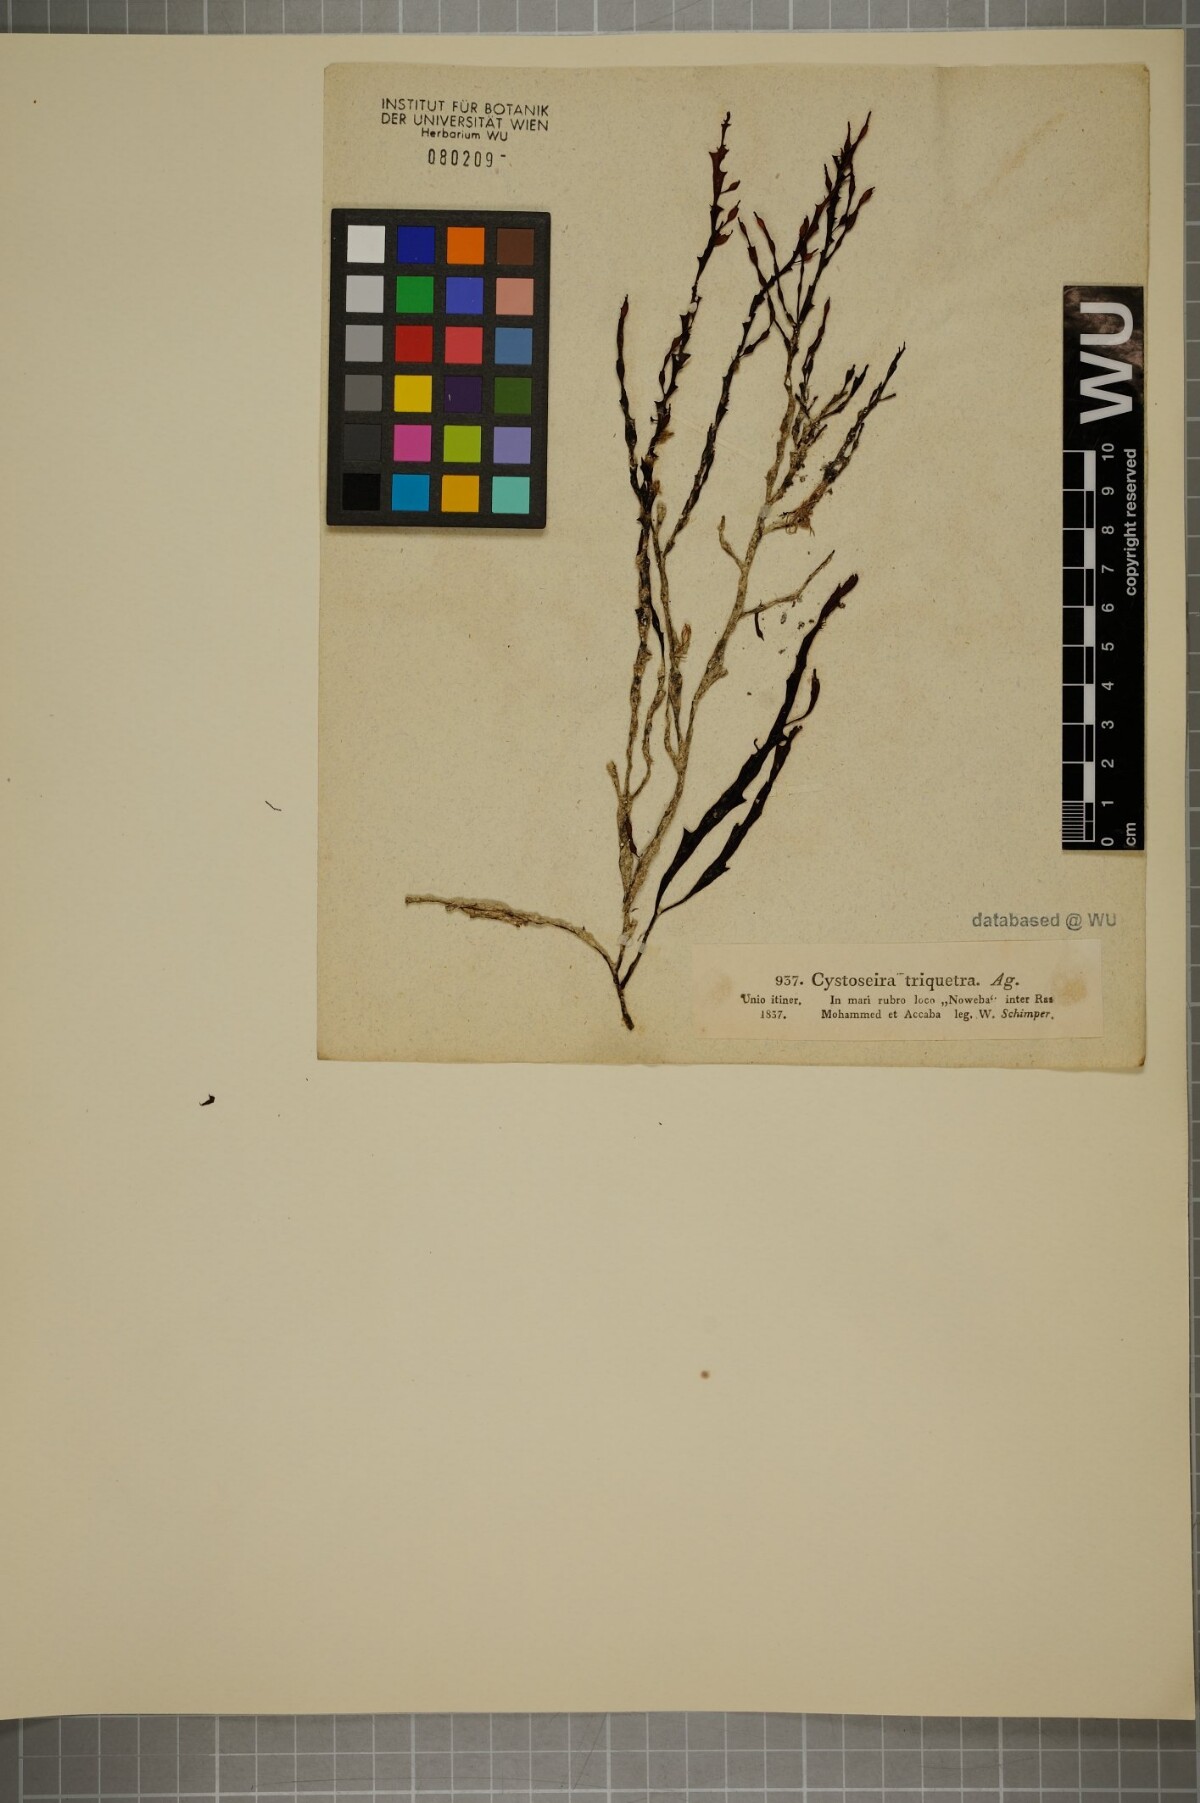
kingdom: Chromista
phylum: Ochrophyta
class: Phaeophyceae
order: Fucales
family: Sargassaceae
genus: Hormophysa
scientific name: Hormophysa cuneiformis
